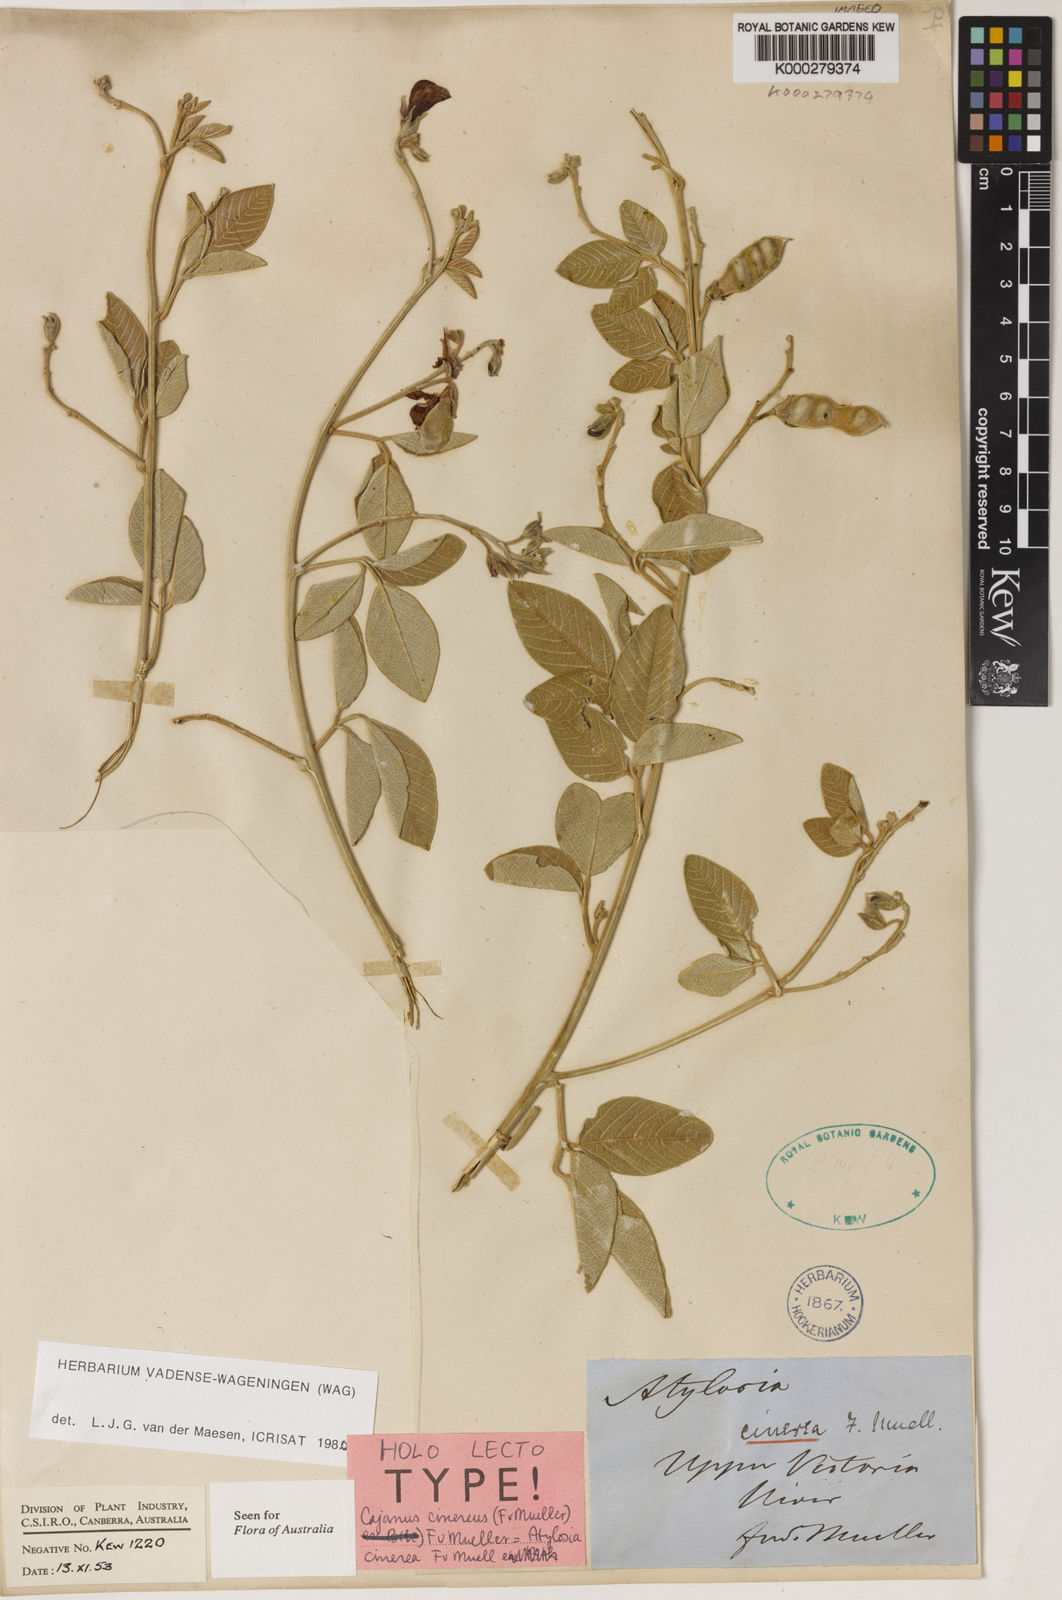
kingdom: Plantae
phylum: Tracheophyta
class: Magnoliopsida
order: Fabales
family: Fabaceae
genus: Cajanus
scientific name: Cajanus cinereus
